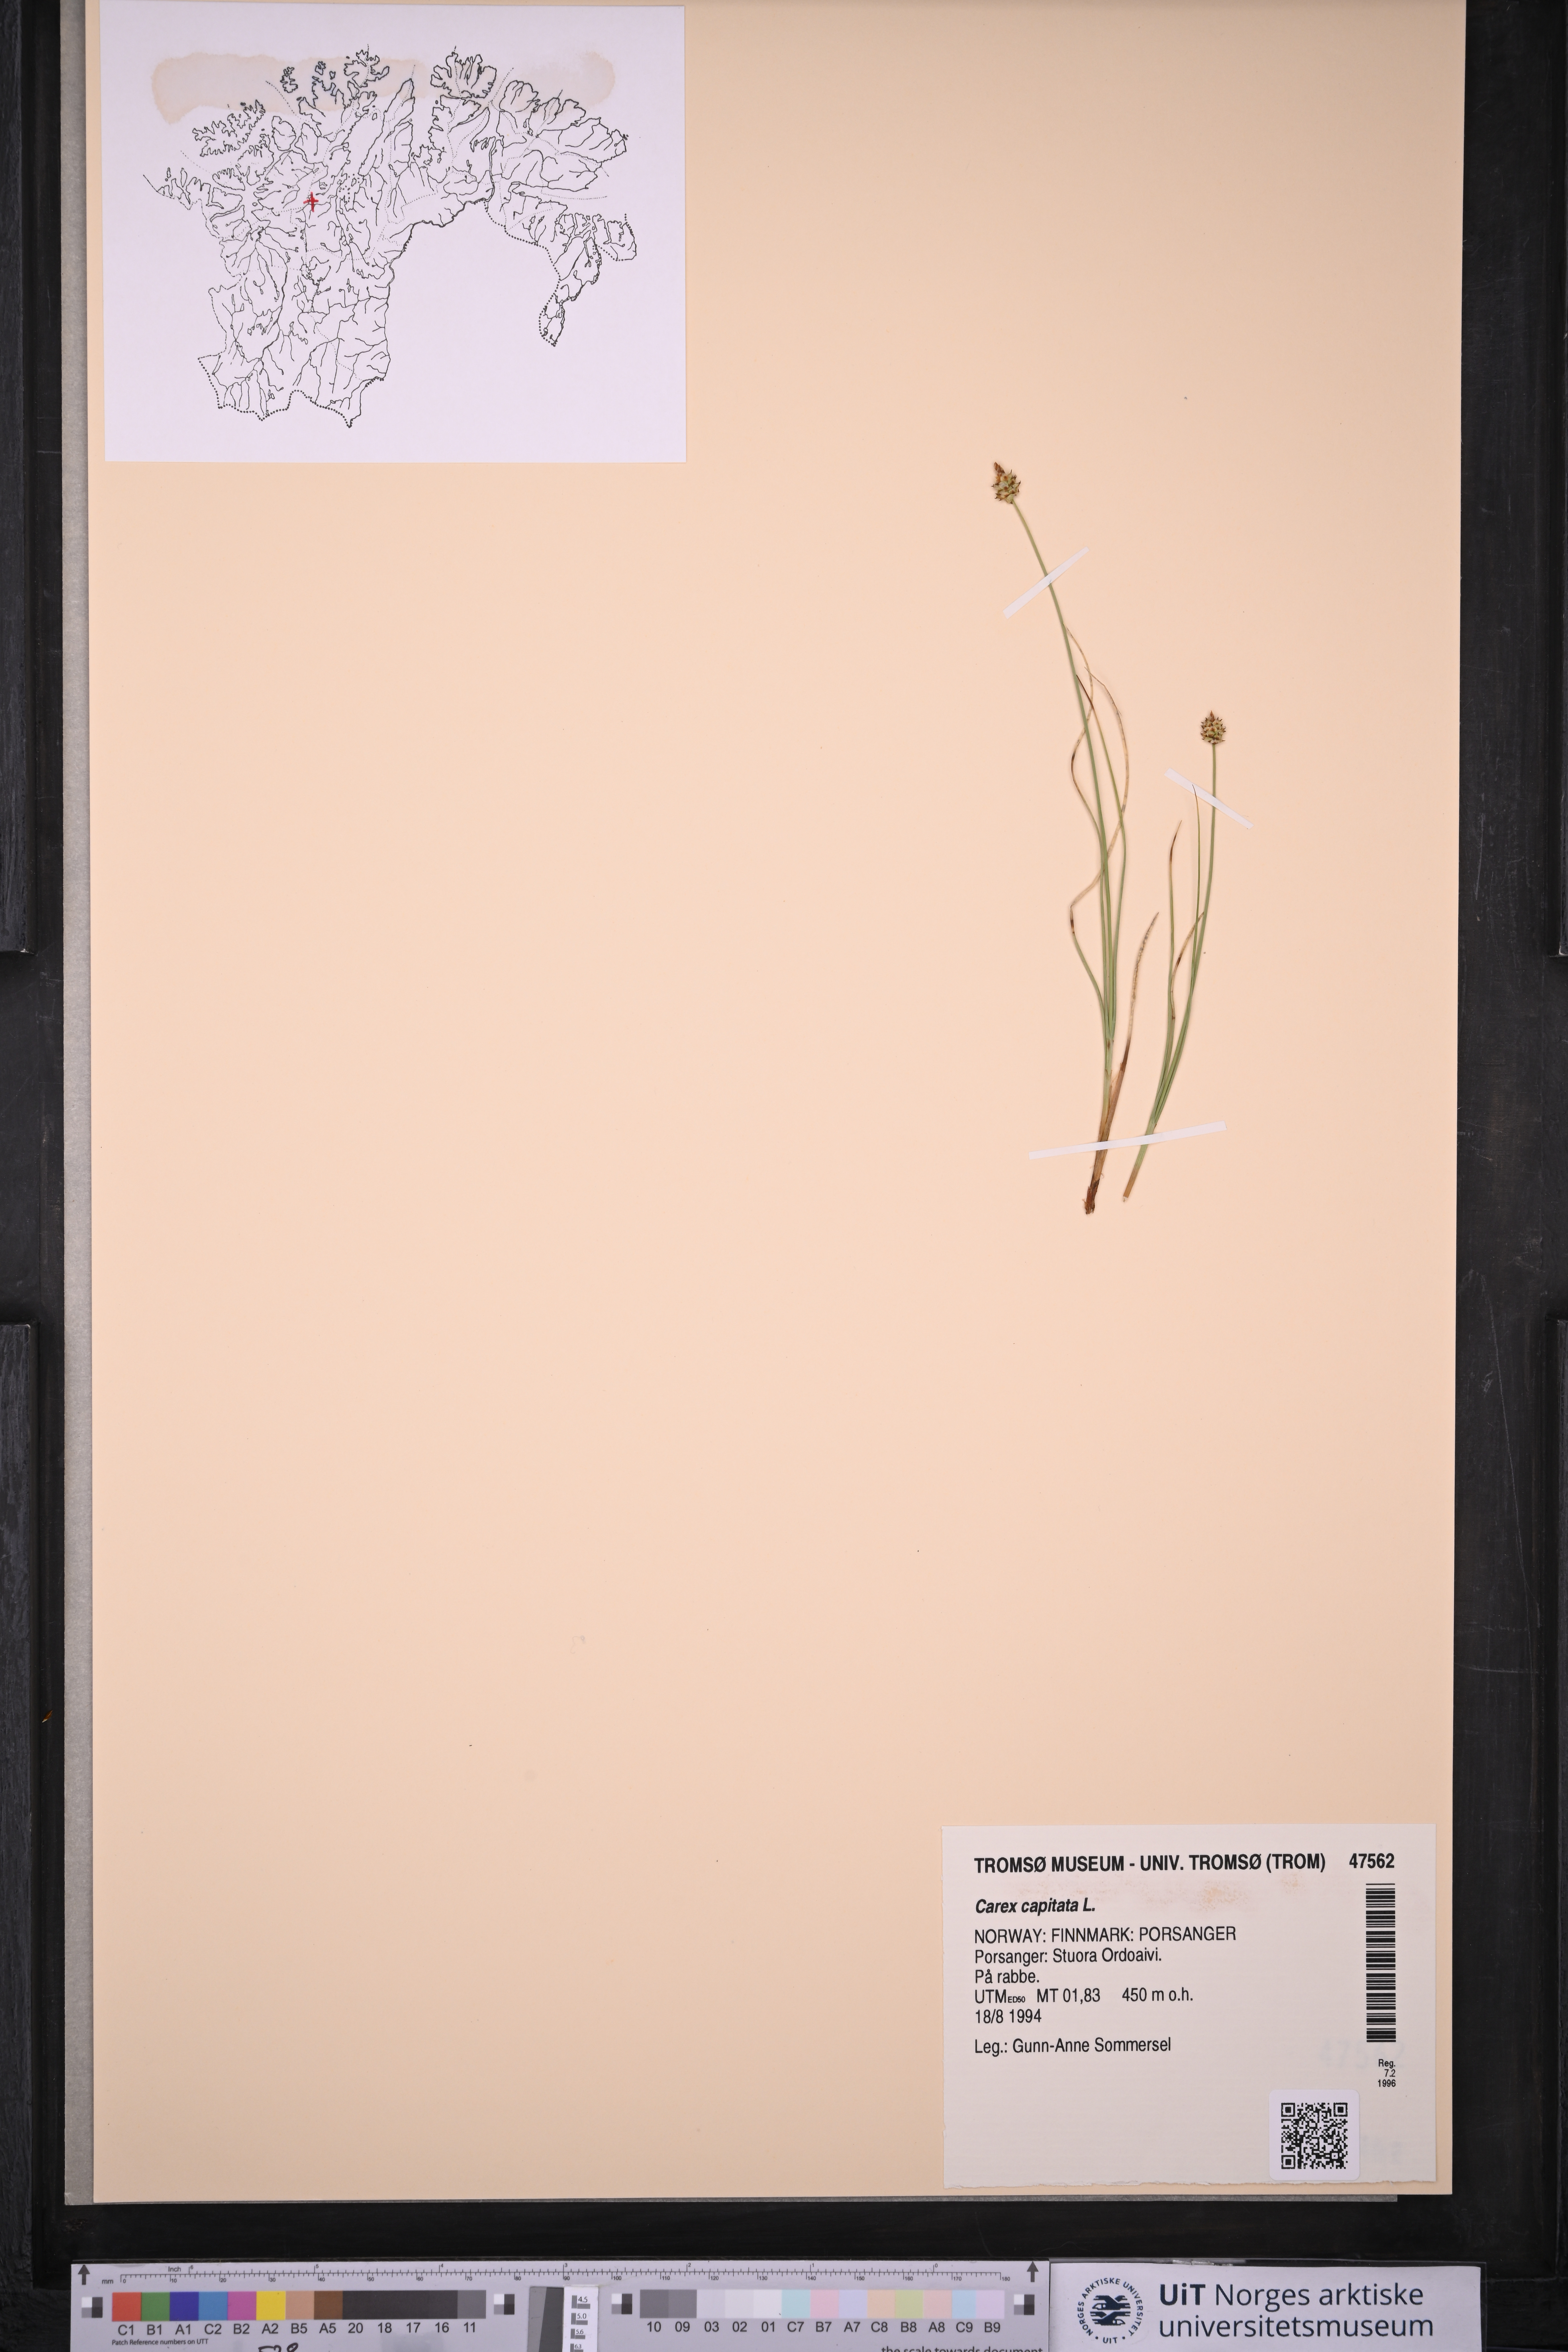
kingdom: Plantae
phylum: Tracheophyta
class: Liliopsida
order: Poales
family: Cyperaceae
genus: Carex
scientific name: Carex capitata
